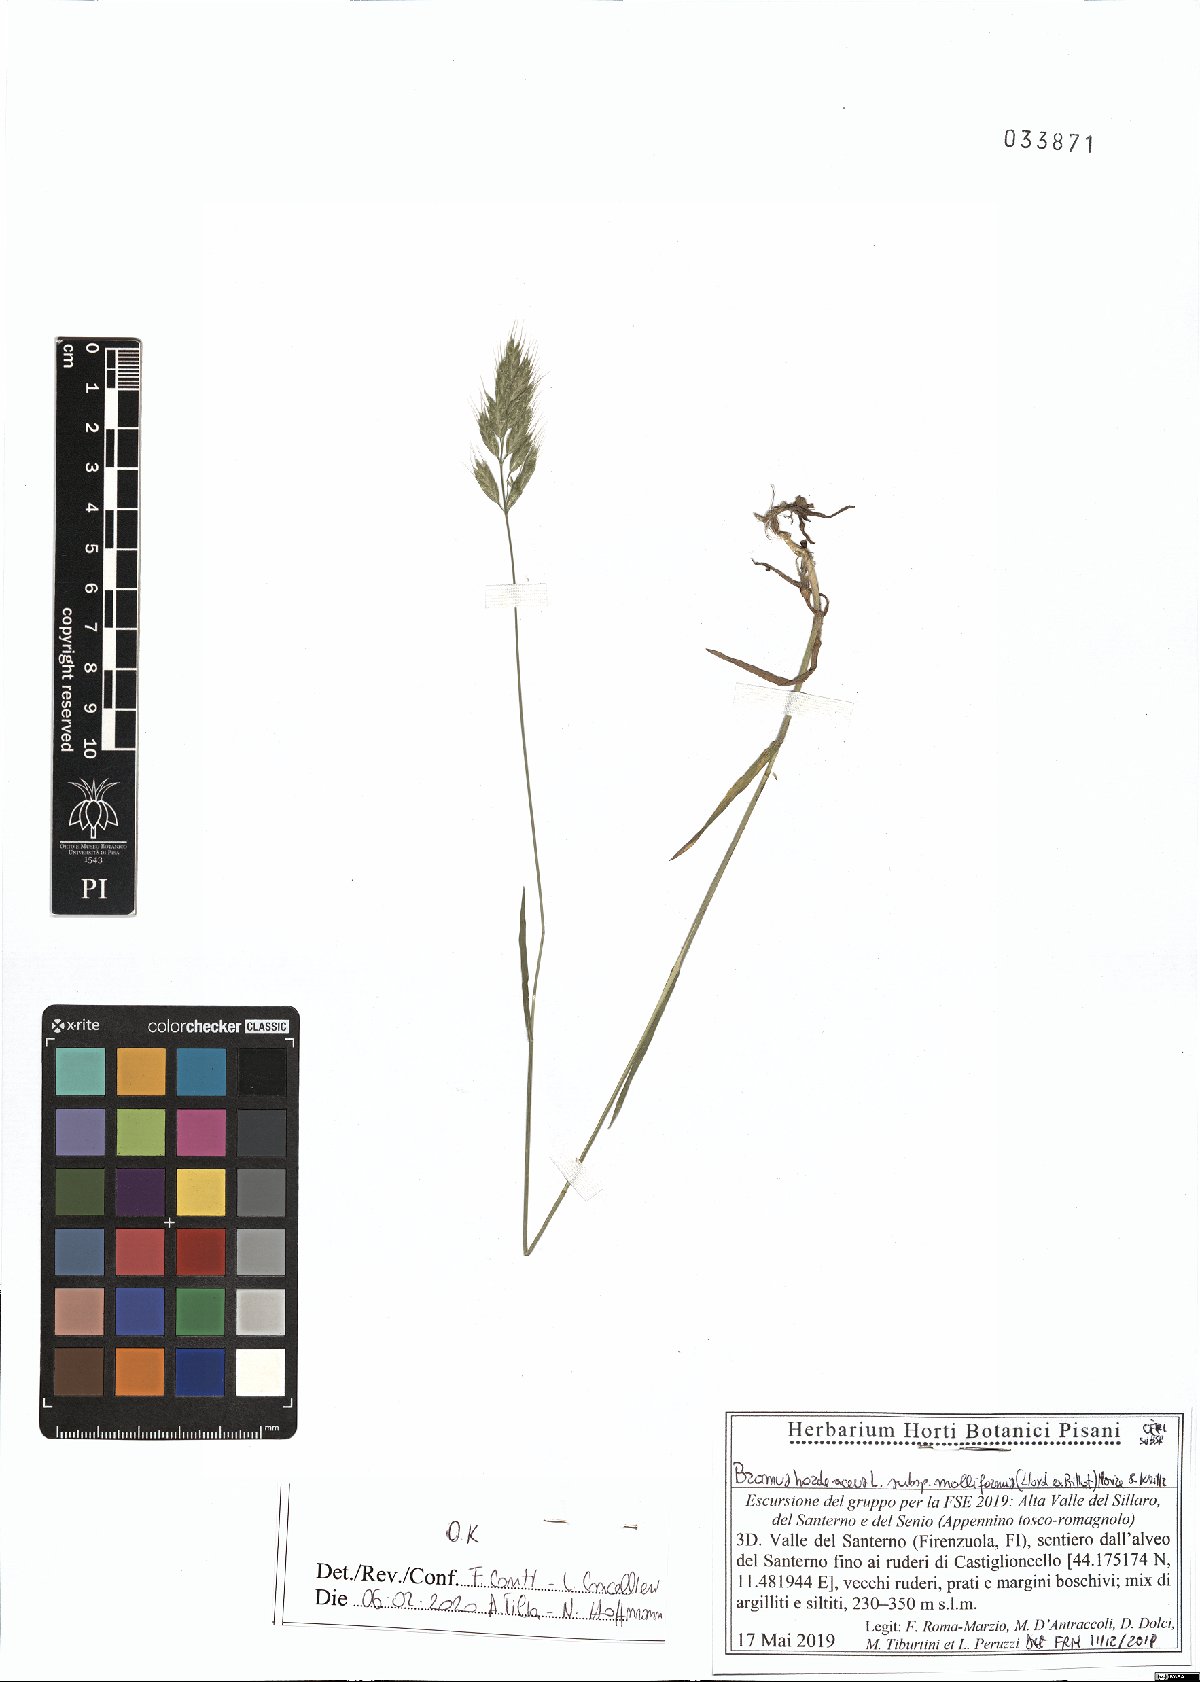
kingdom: Plantae
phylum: Tracheophyta
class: Liliopsida
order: Poales
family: Poaceae
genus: Bromus
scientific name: Bromus hordeaceus
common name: Soft brome
